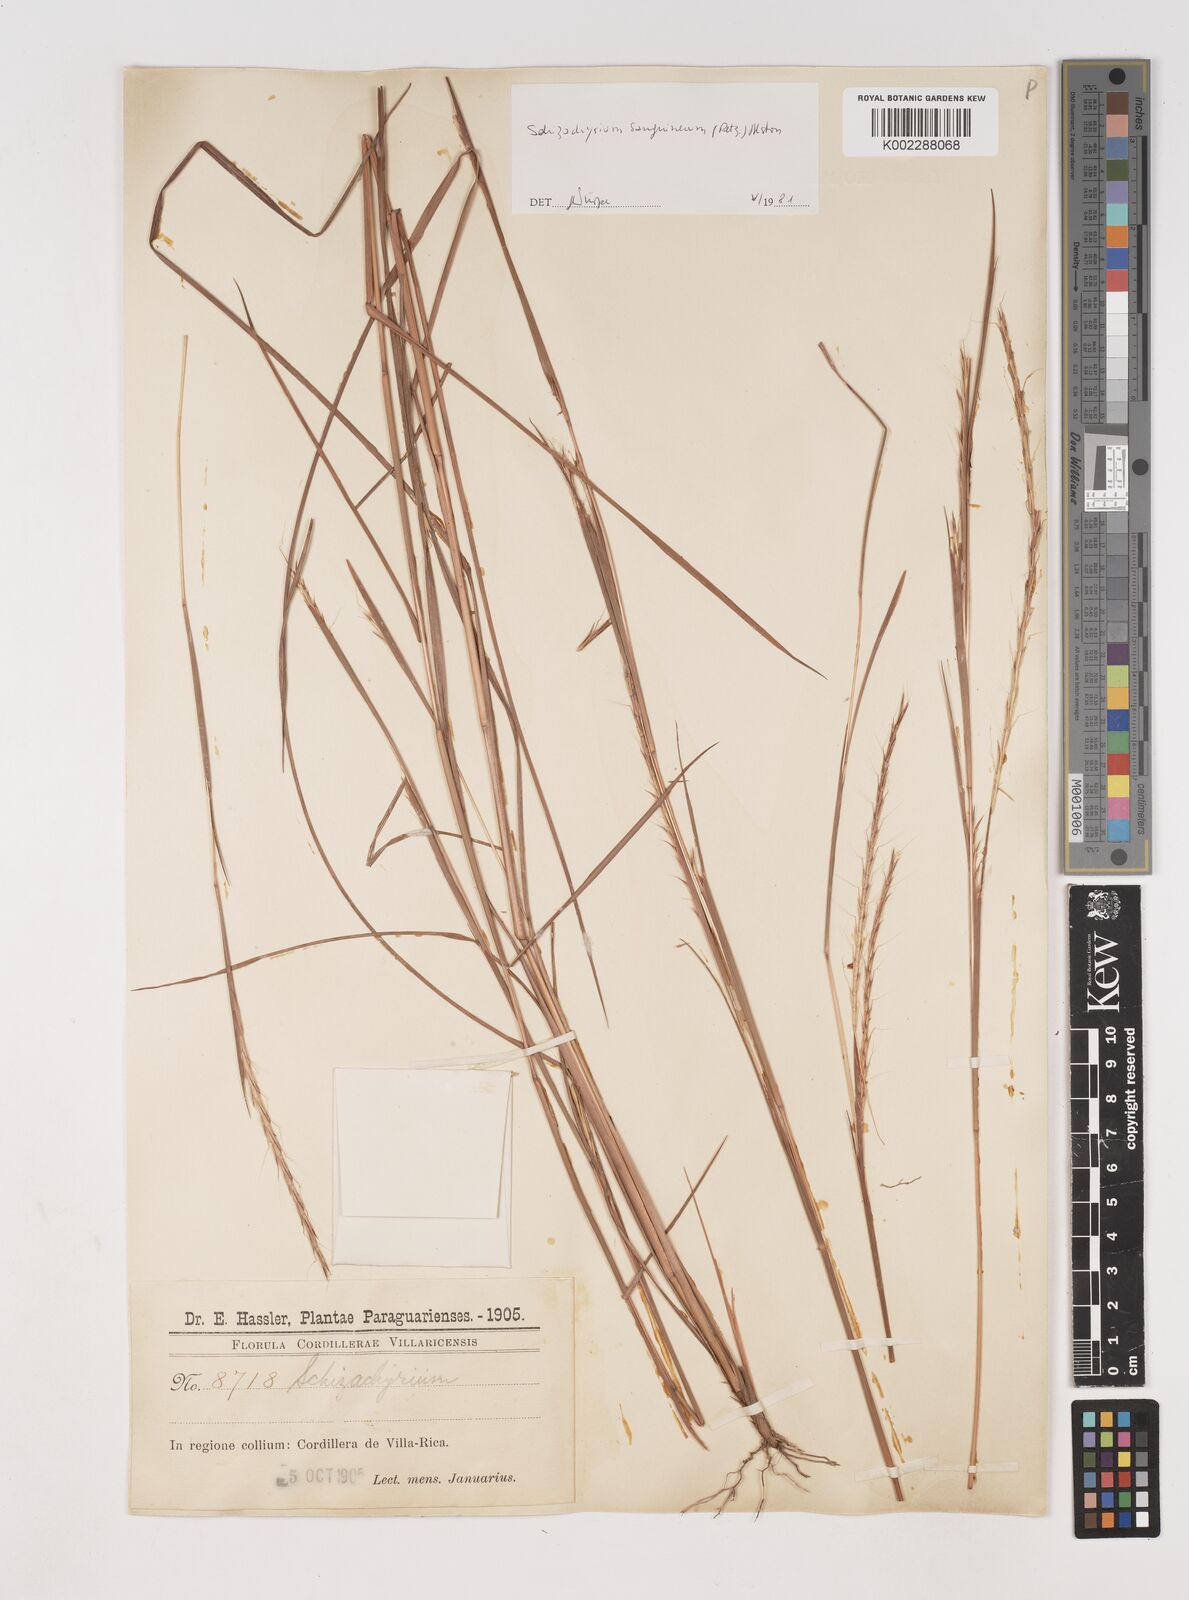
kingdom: Plantae
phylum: Tracheophyta
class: Liliopsida
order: Poales
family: Poaceae
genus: Schizachyrium
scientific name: Schizachyrium sanguineum
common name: Crimson bluestem
